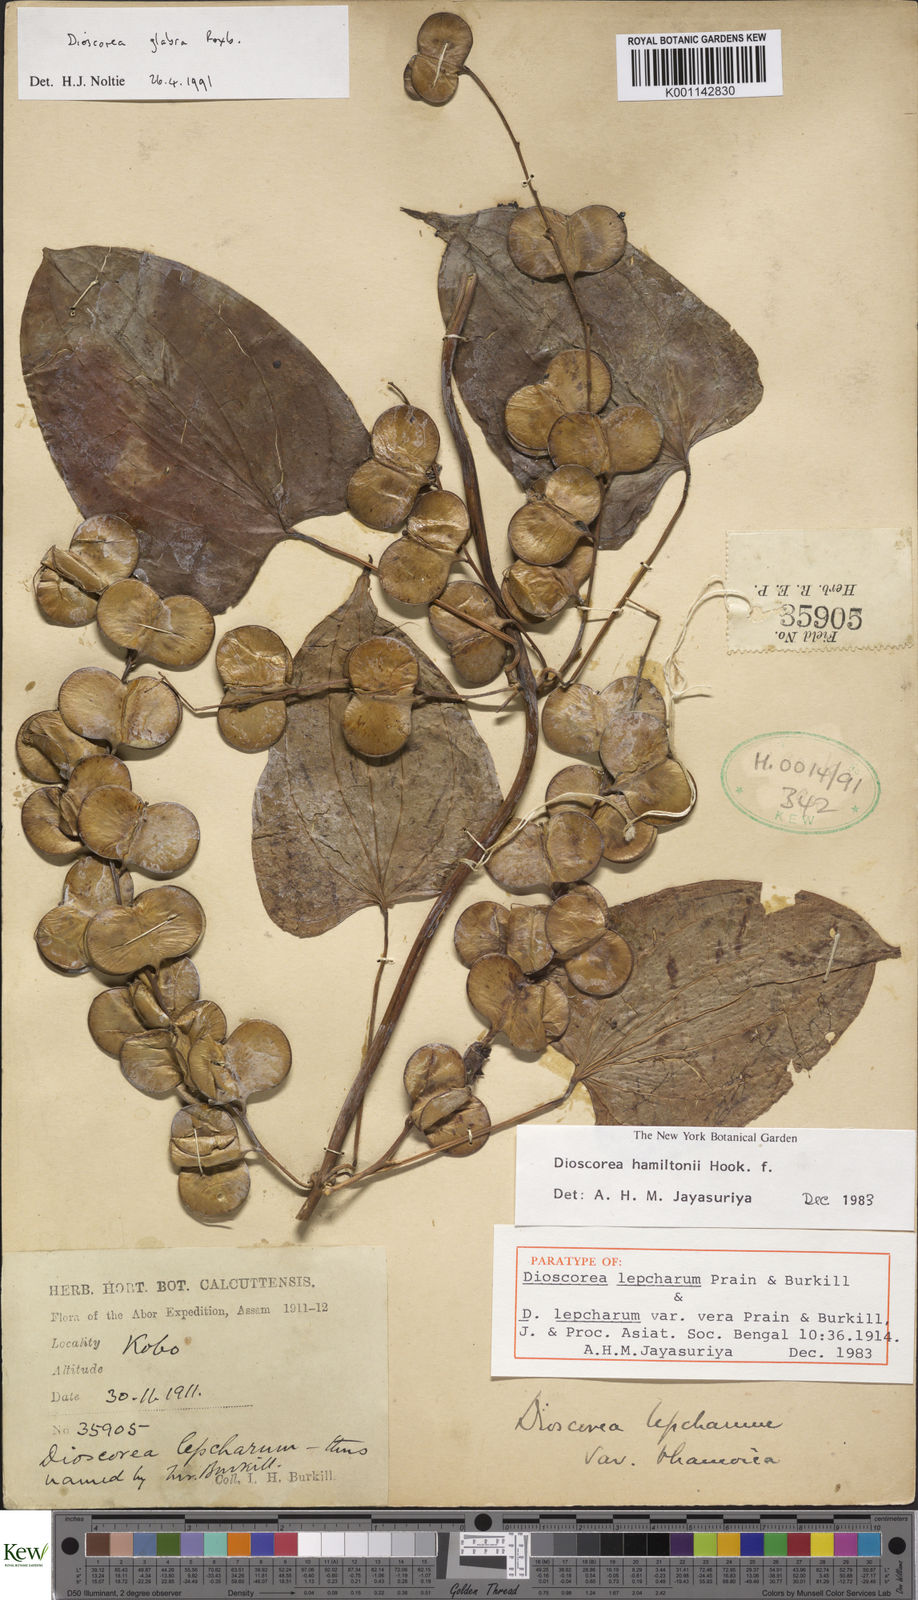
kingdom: Plantae
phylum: Tracheophyta
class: Liliopsida
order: Dioscoreales
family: Dioscoreaceae
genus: Dioscorea
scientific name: Dioscorea glabra
